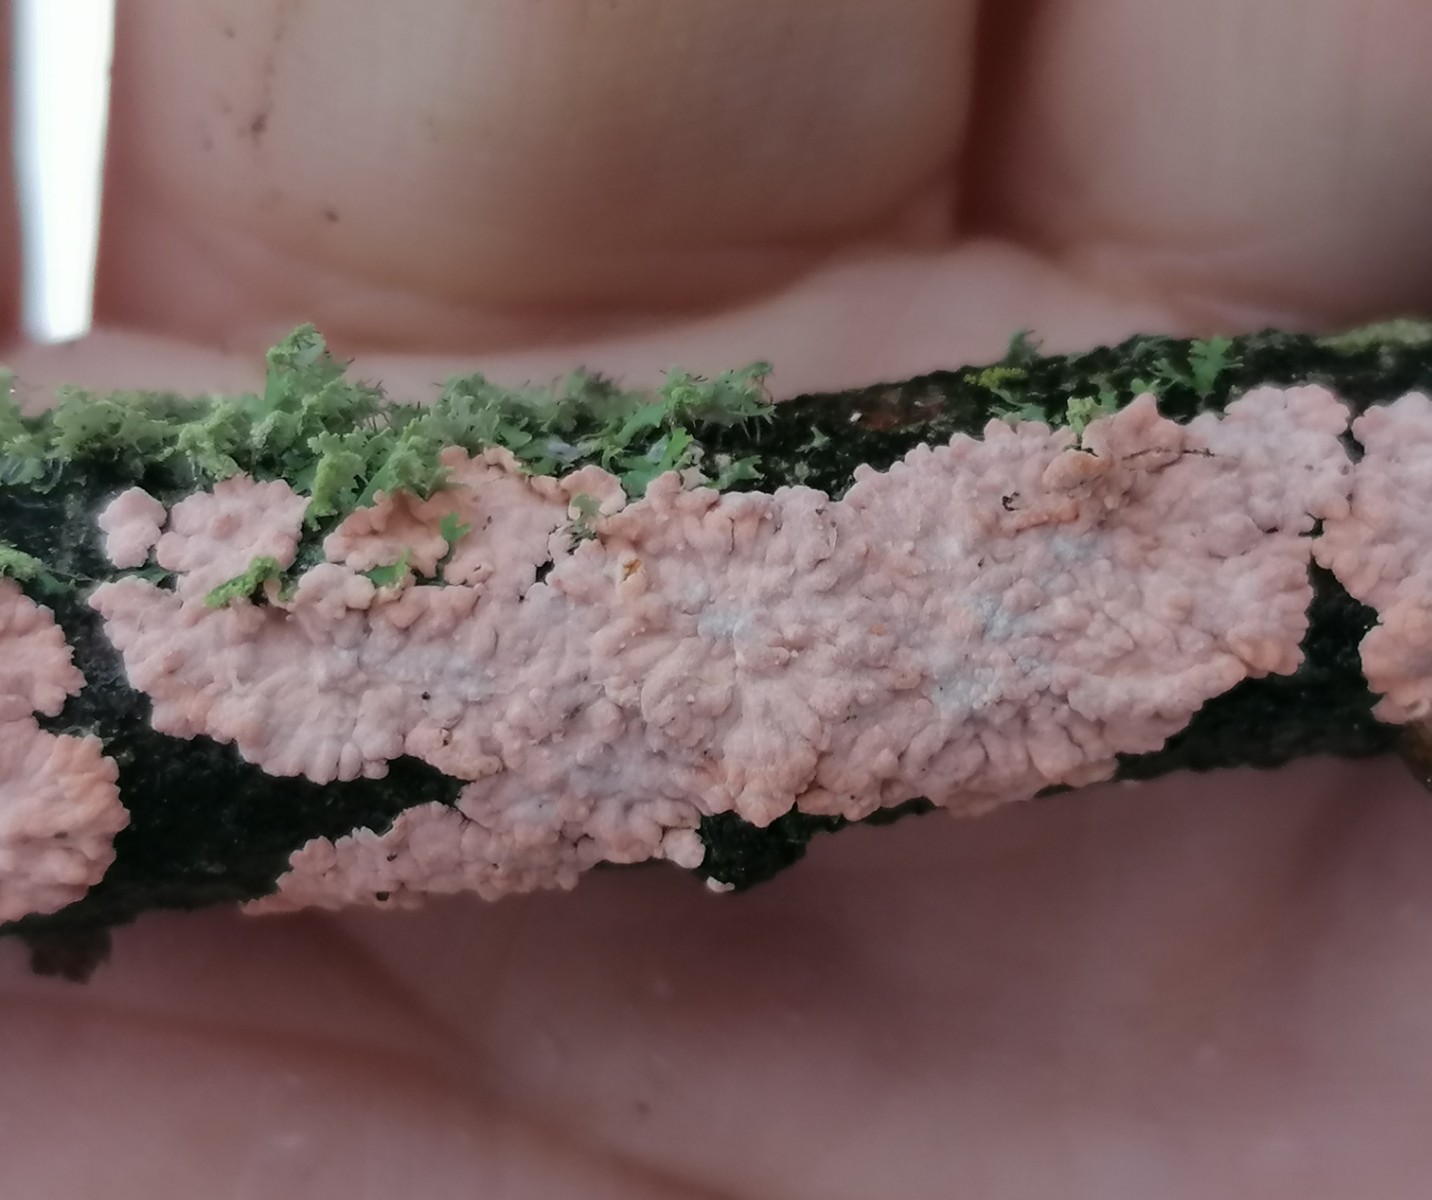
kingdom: Fungi
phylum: Basidiomycota
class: Agaricomycetes
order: Corticiales
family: Corticiaceae
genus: Corticium
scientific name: Corticium roseum
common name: rosa barkskind
